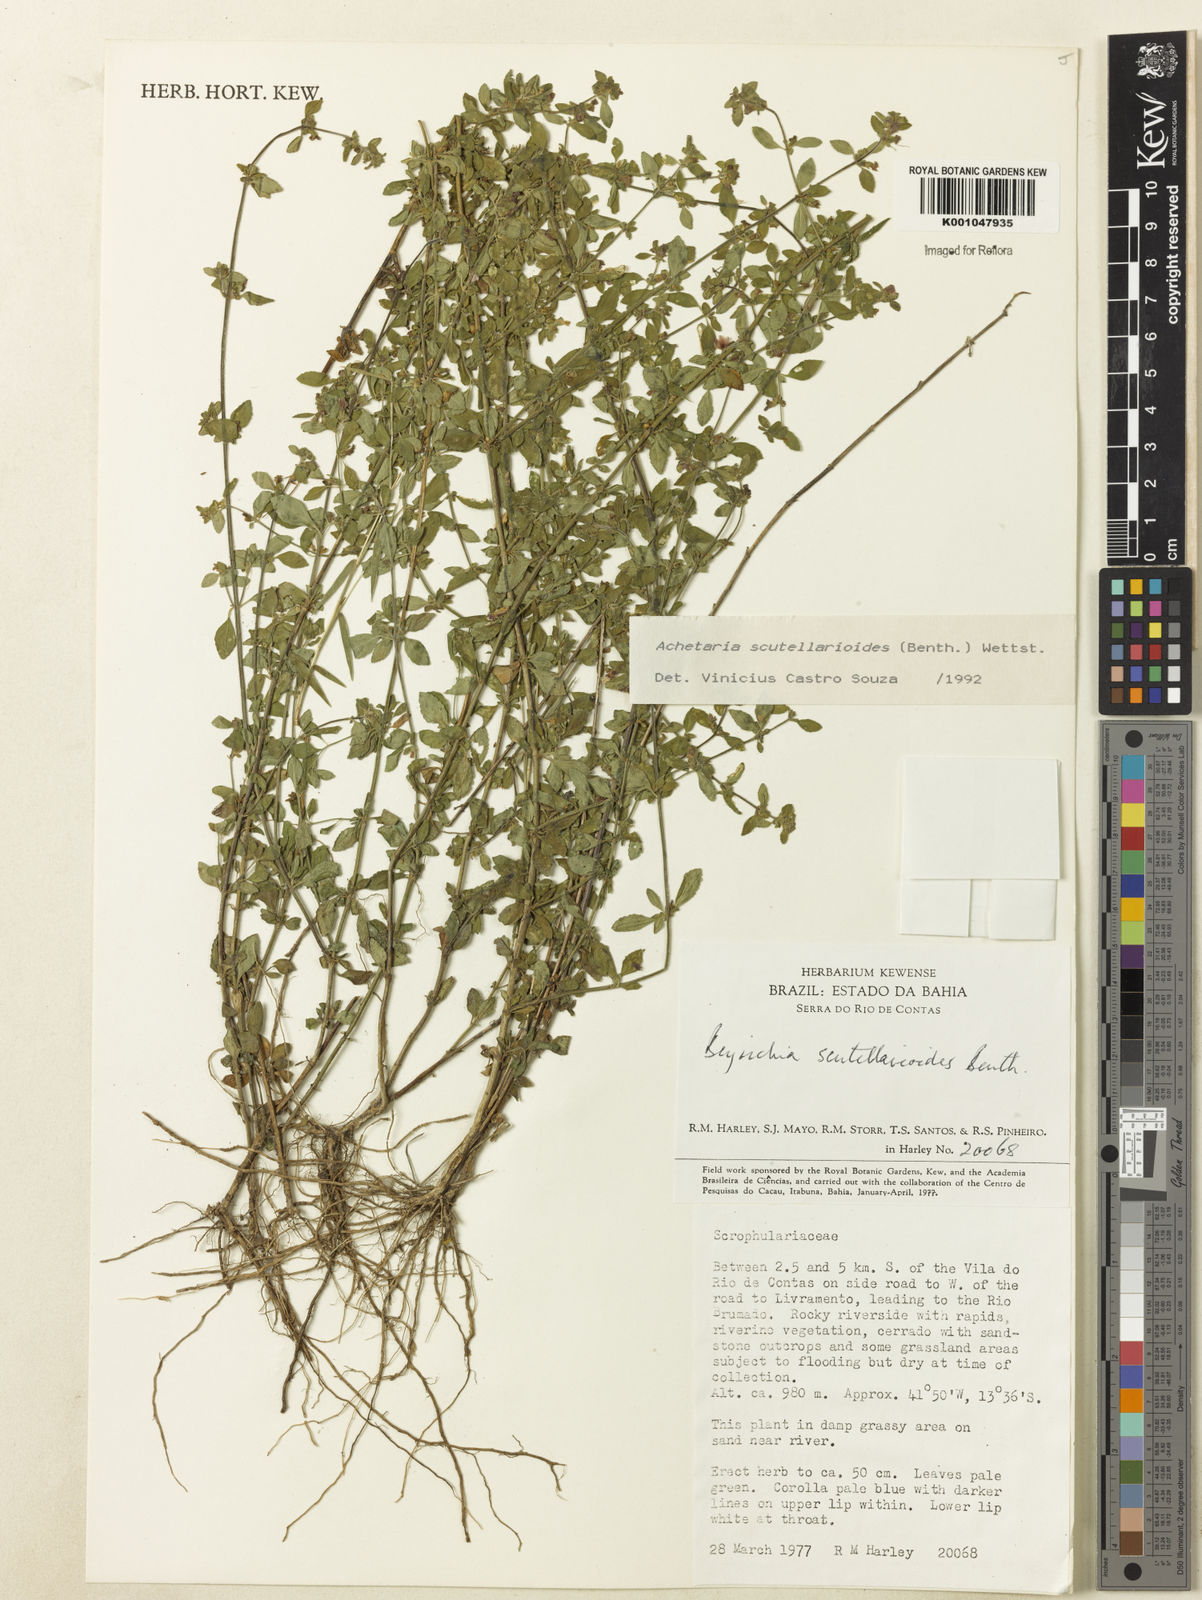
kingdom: Plantae
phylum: Tracheophyta
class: Magnoliopsida
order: Lamiales
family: Plantaginaceae
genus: Matourea
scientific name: Matourea scutellarioides
